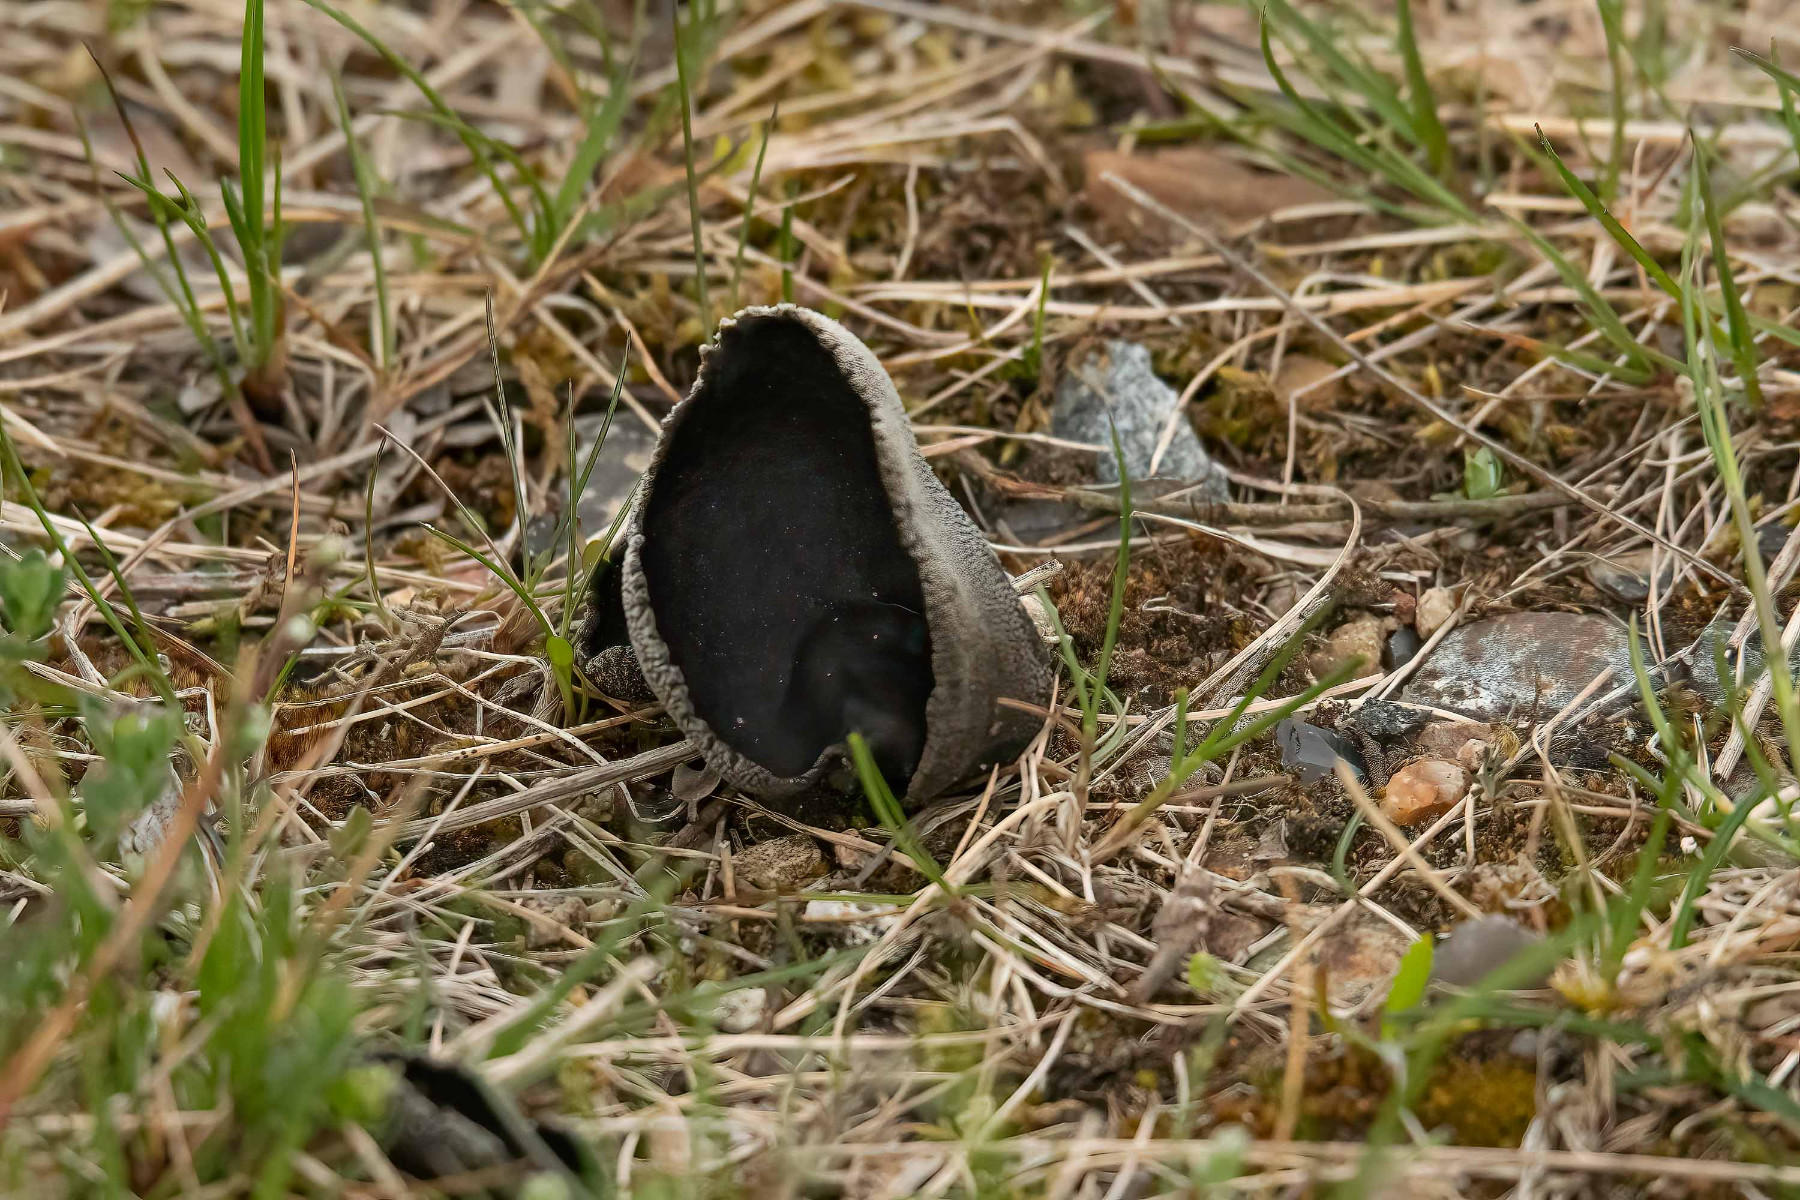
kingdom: Fungi
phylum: Ascomycota
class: Pezizomycetes
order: Pezizales
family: Helvellaceae
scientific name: Helvellaceae
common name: foldhatfamilien
